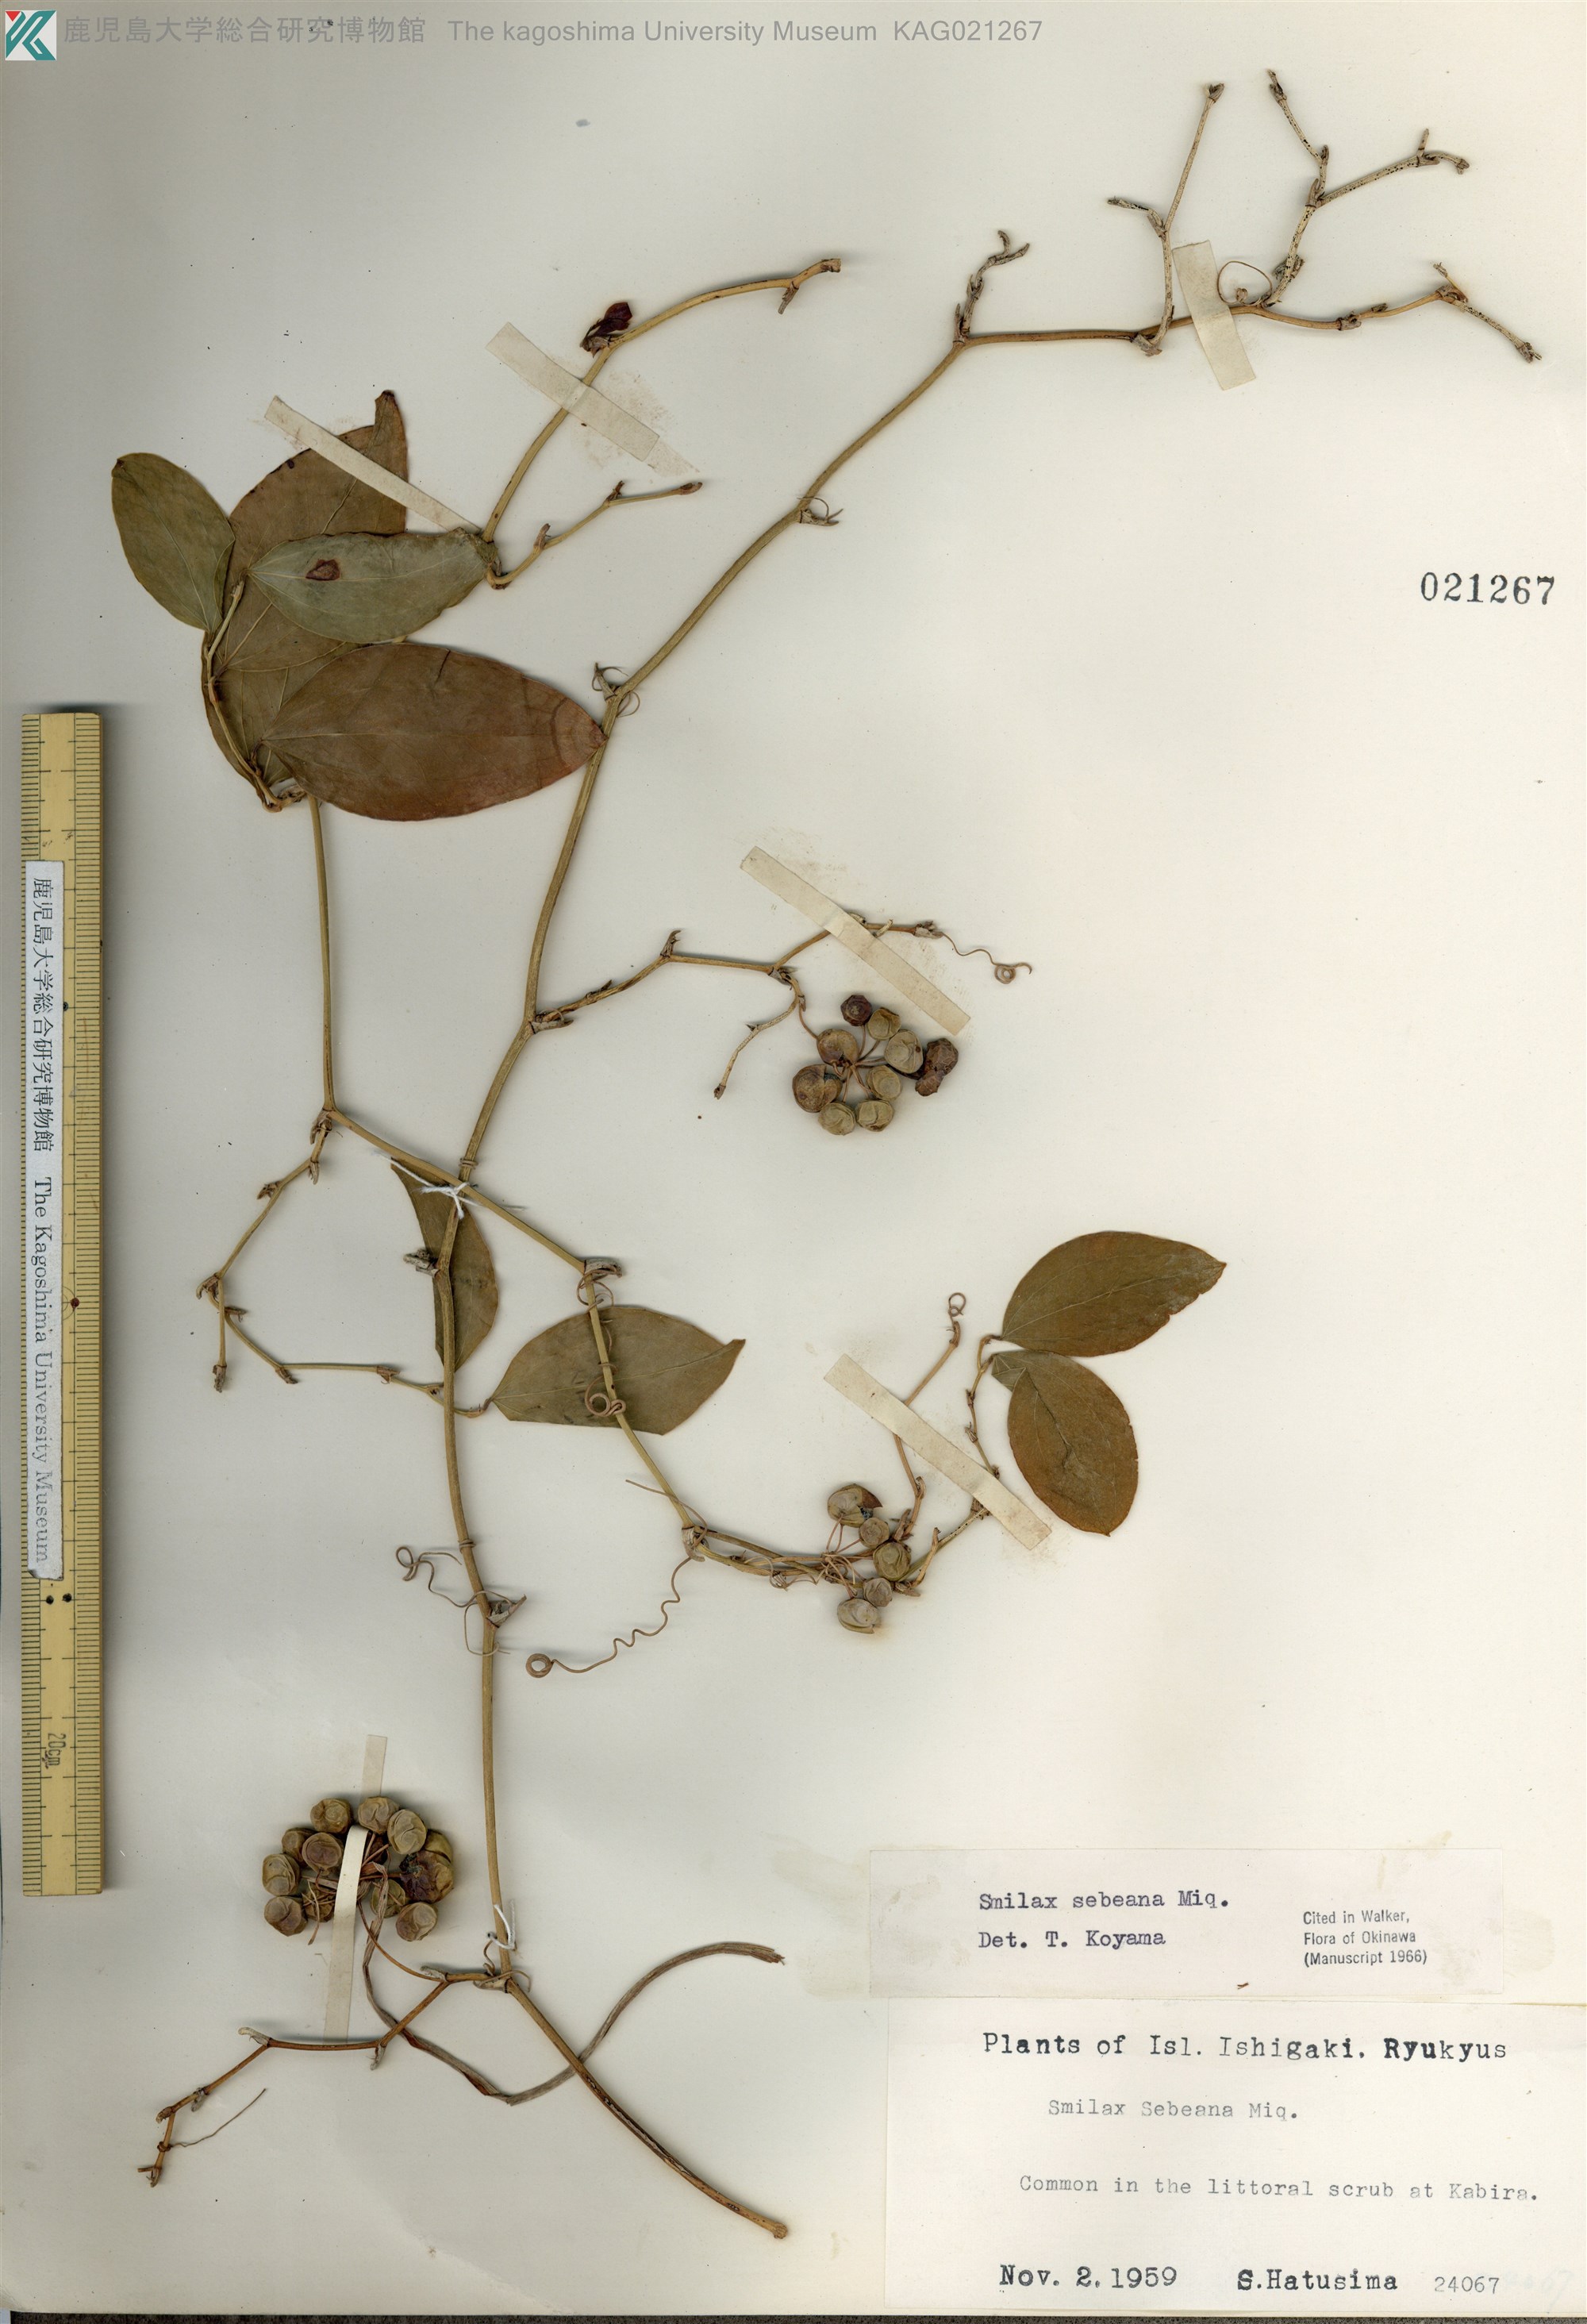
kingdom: Plantae
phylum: Tracheophyta
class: Liliopsida
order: Liliales
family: Smilacaceae
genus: Smilax
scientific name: Smilax sebeana
